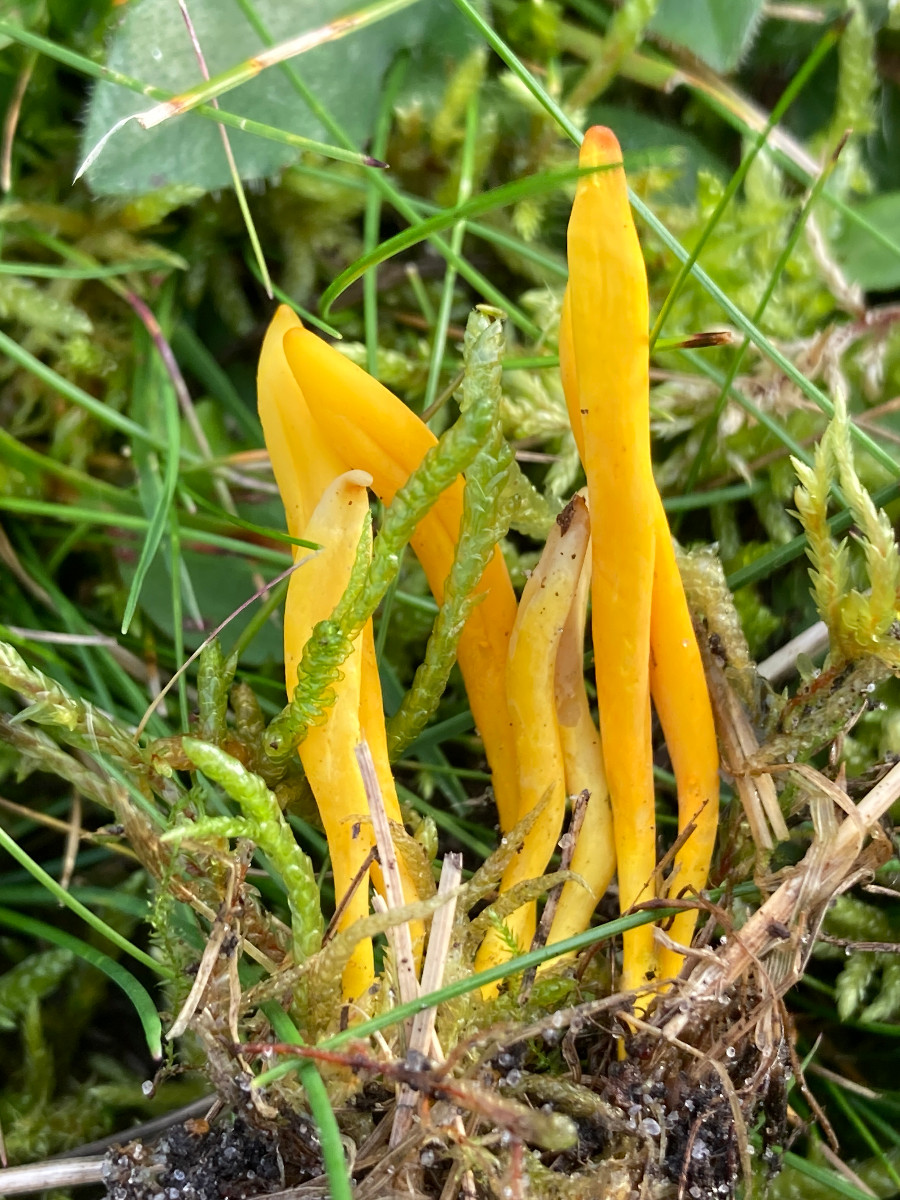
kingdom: Fungi
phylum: Basidiomycota
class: Agaricomycetes
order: Agaricales
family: Clavariaceae
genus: Clavulinopsis
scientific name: Clavulinopsis
